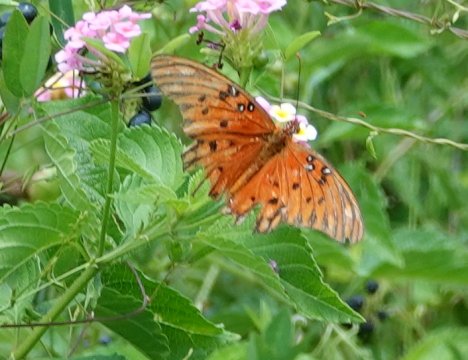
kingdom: Animalia
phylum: Arthropoda
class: Insecta
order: Lepidoptera
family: Nymphalidae
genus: Dione
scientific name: Dione vanillae
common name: Gulf Fritillary
